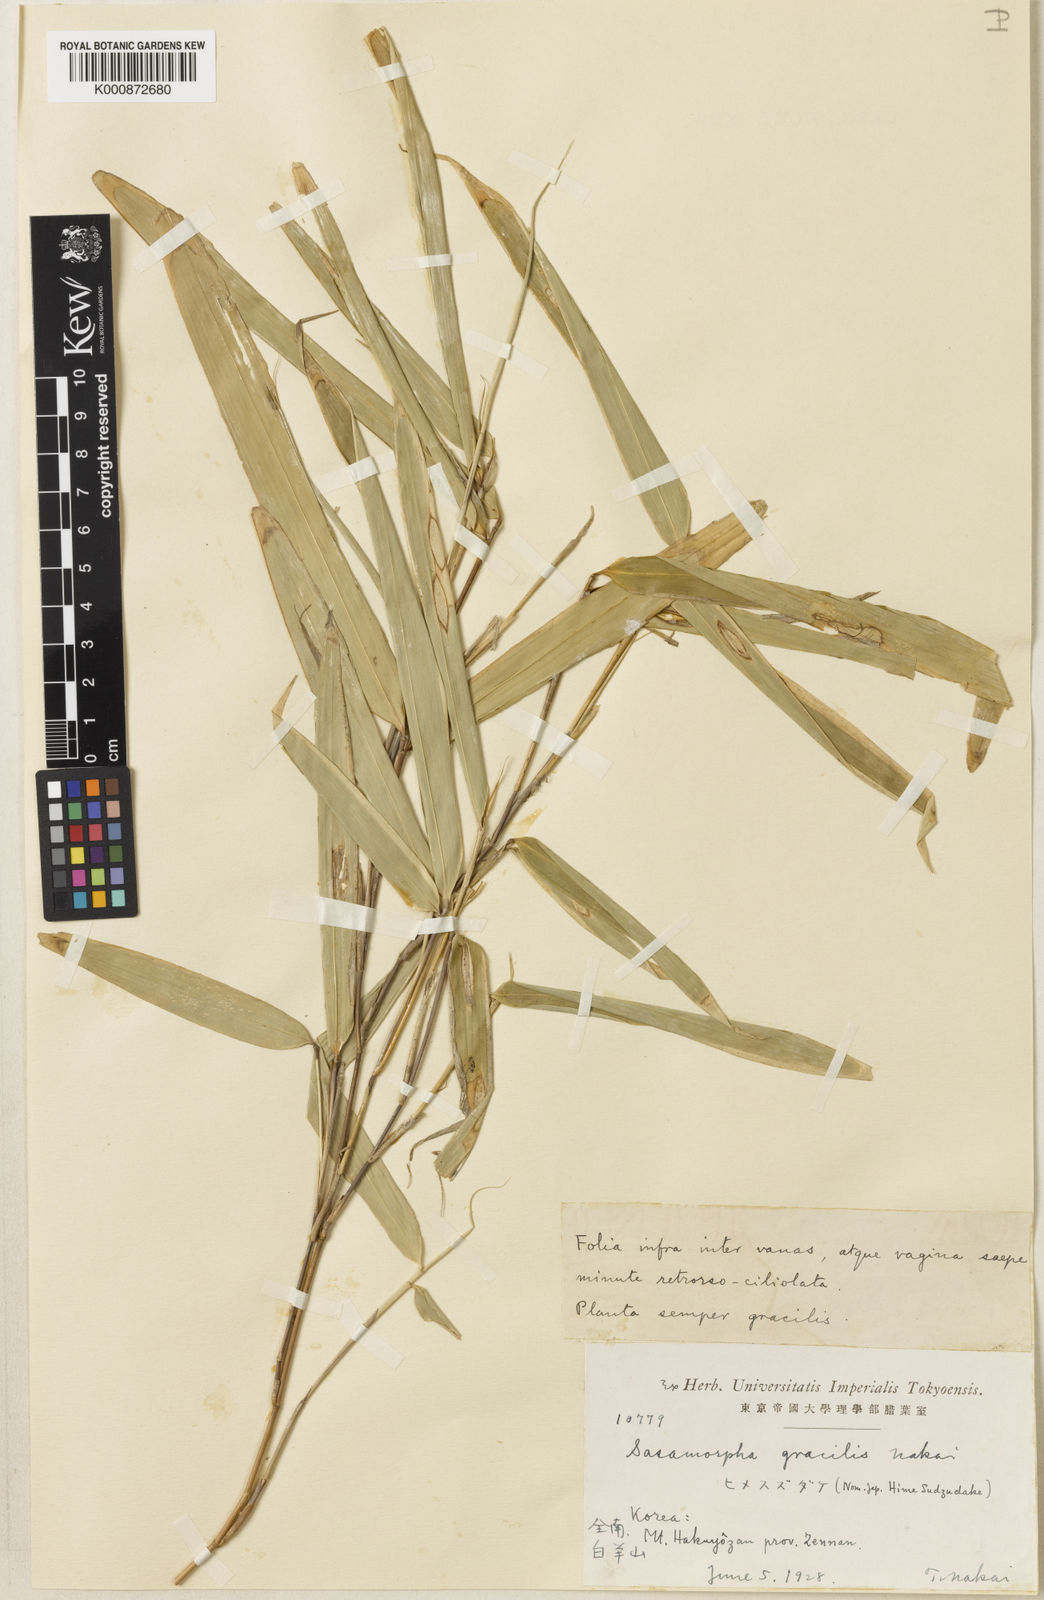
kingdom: Plantae
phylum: Tracheophyta
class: Liliopsida
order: Poales
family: Poaceae
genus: Sasamorpha
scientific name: Sasamorpha borealis
